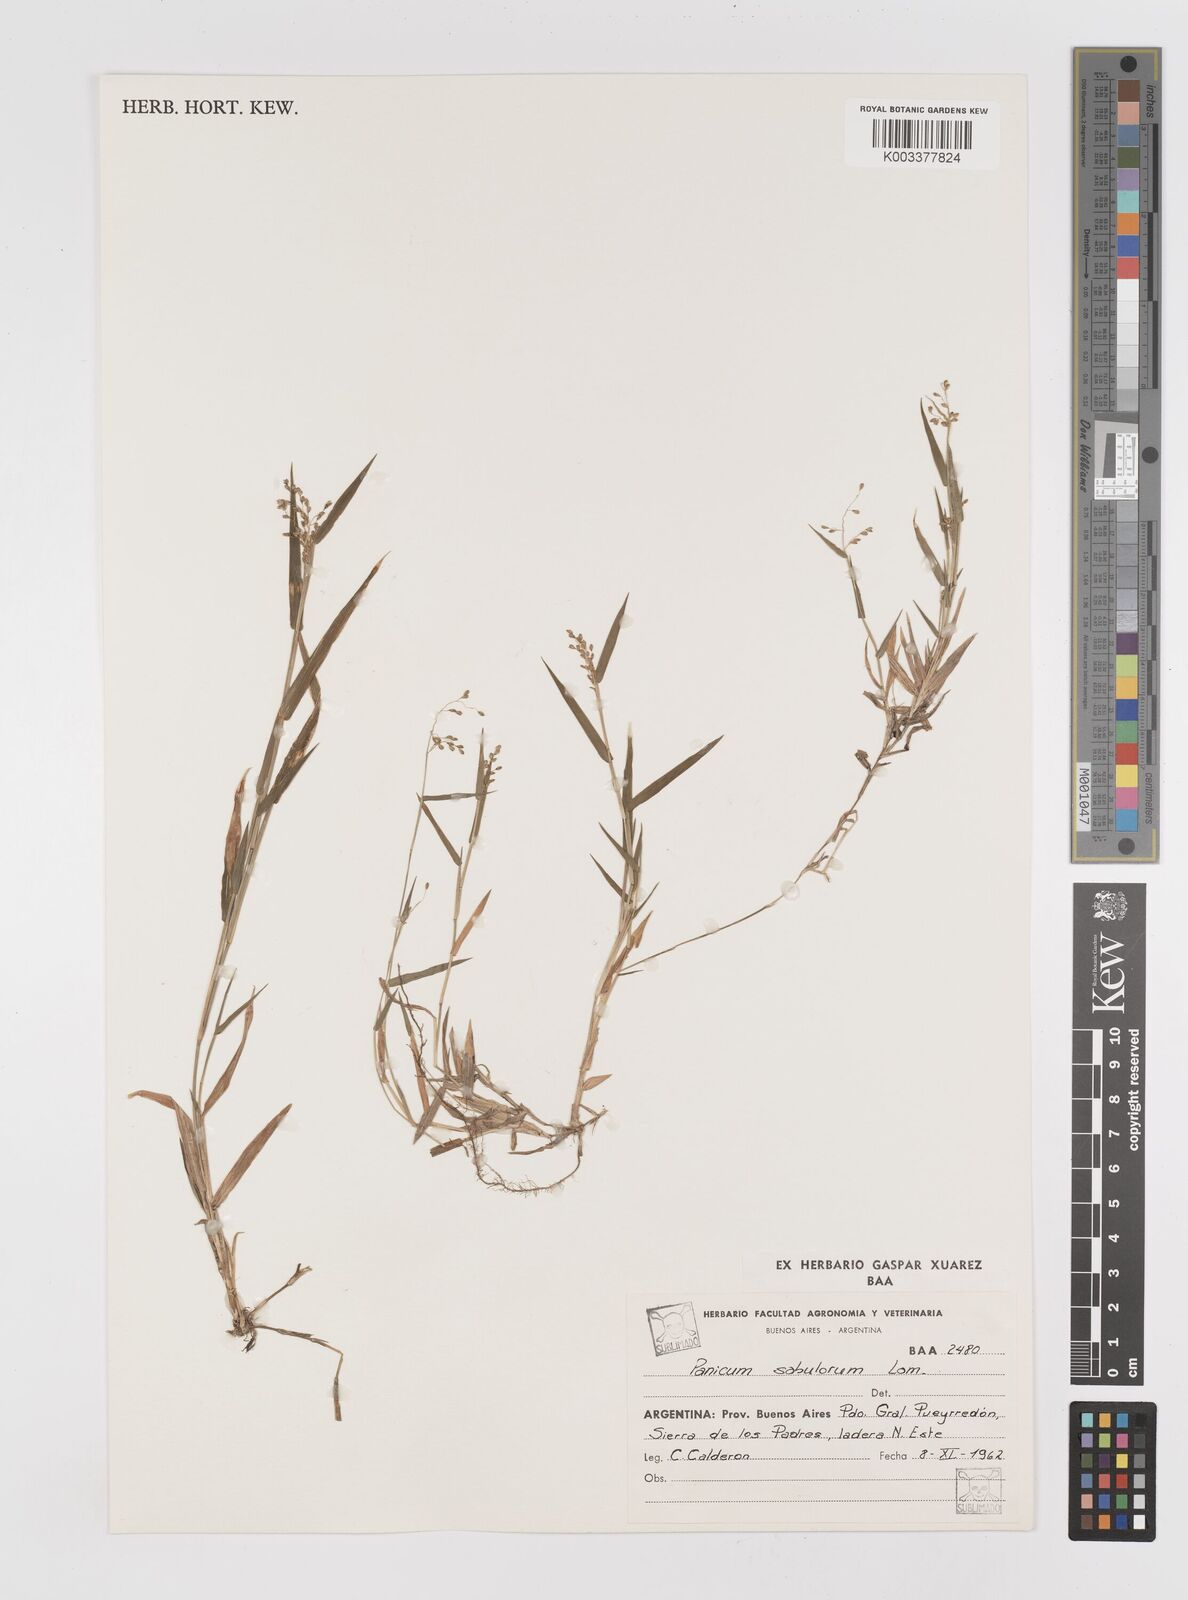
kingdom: Plantae
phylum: Tracheophyta
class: Liliopsida
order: Poales
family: Poaceae
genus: Dichanthelium
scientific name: Dichanthelium sabulorum
